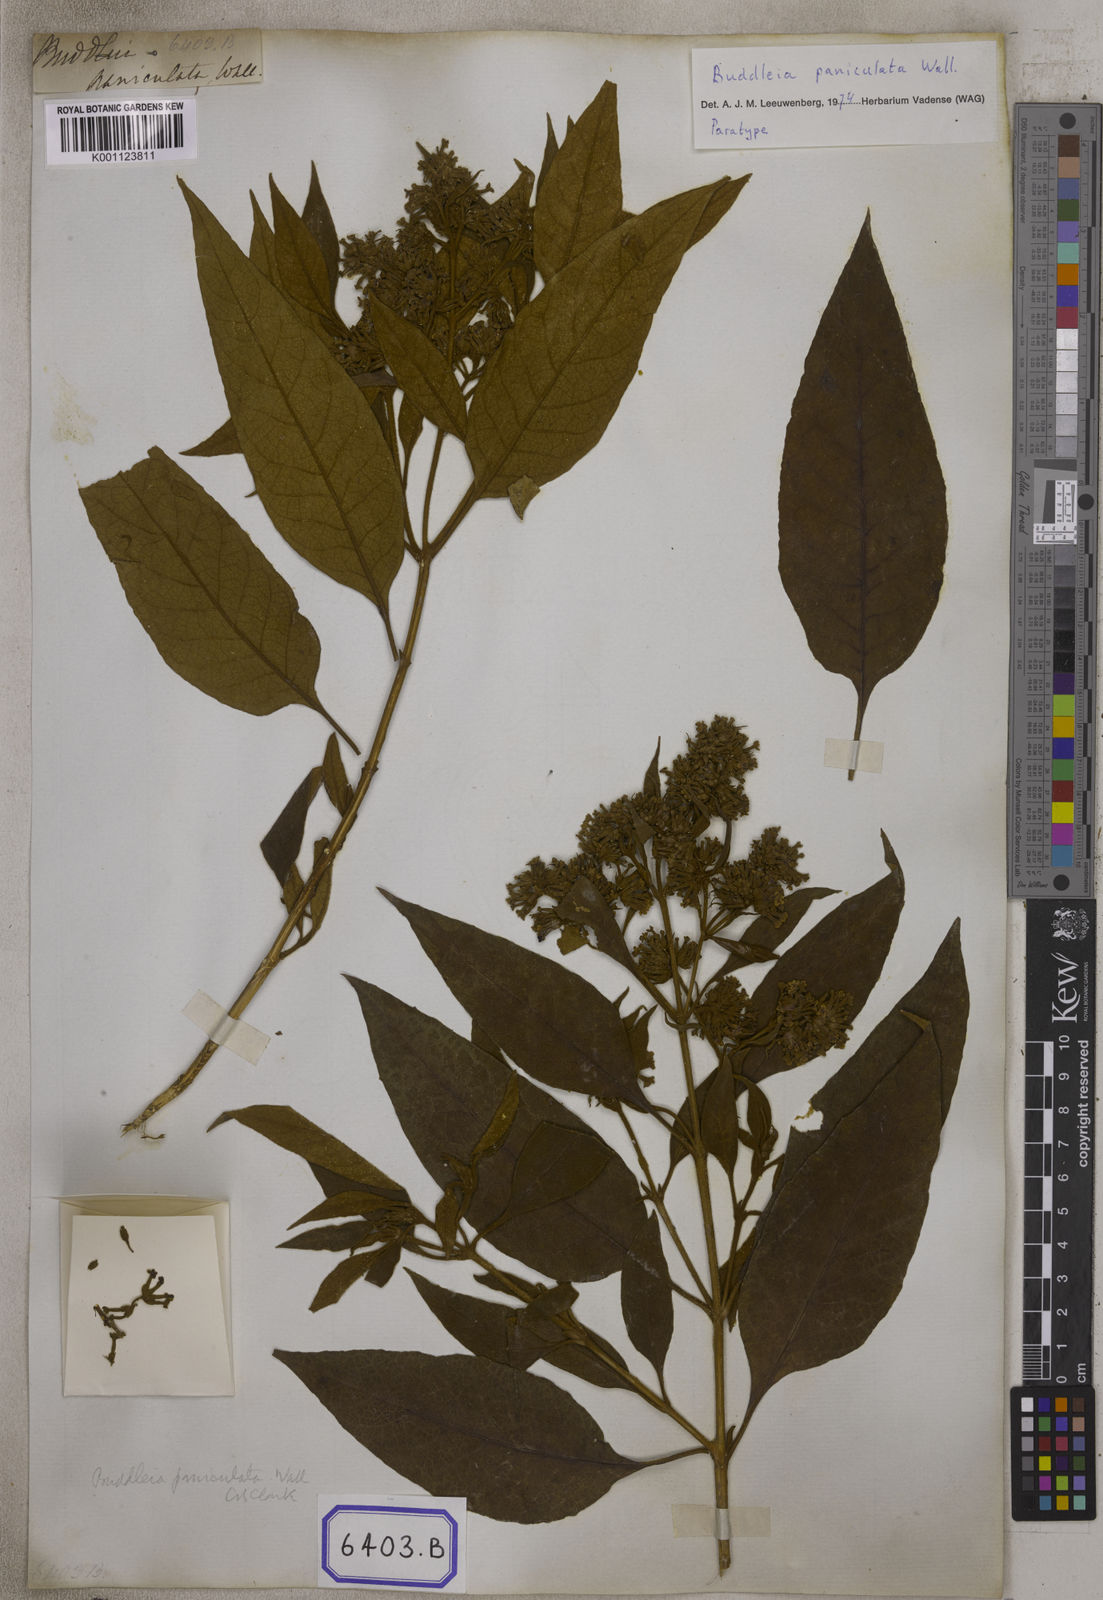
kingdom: Plantae
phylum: Tracheophyta
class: Magnoliopsida
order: Lamiales
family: Scrophulariaceae
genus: Buddleja
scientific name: Buddleja paniculata
